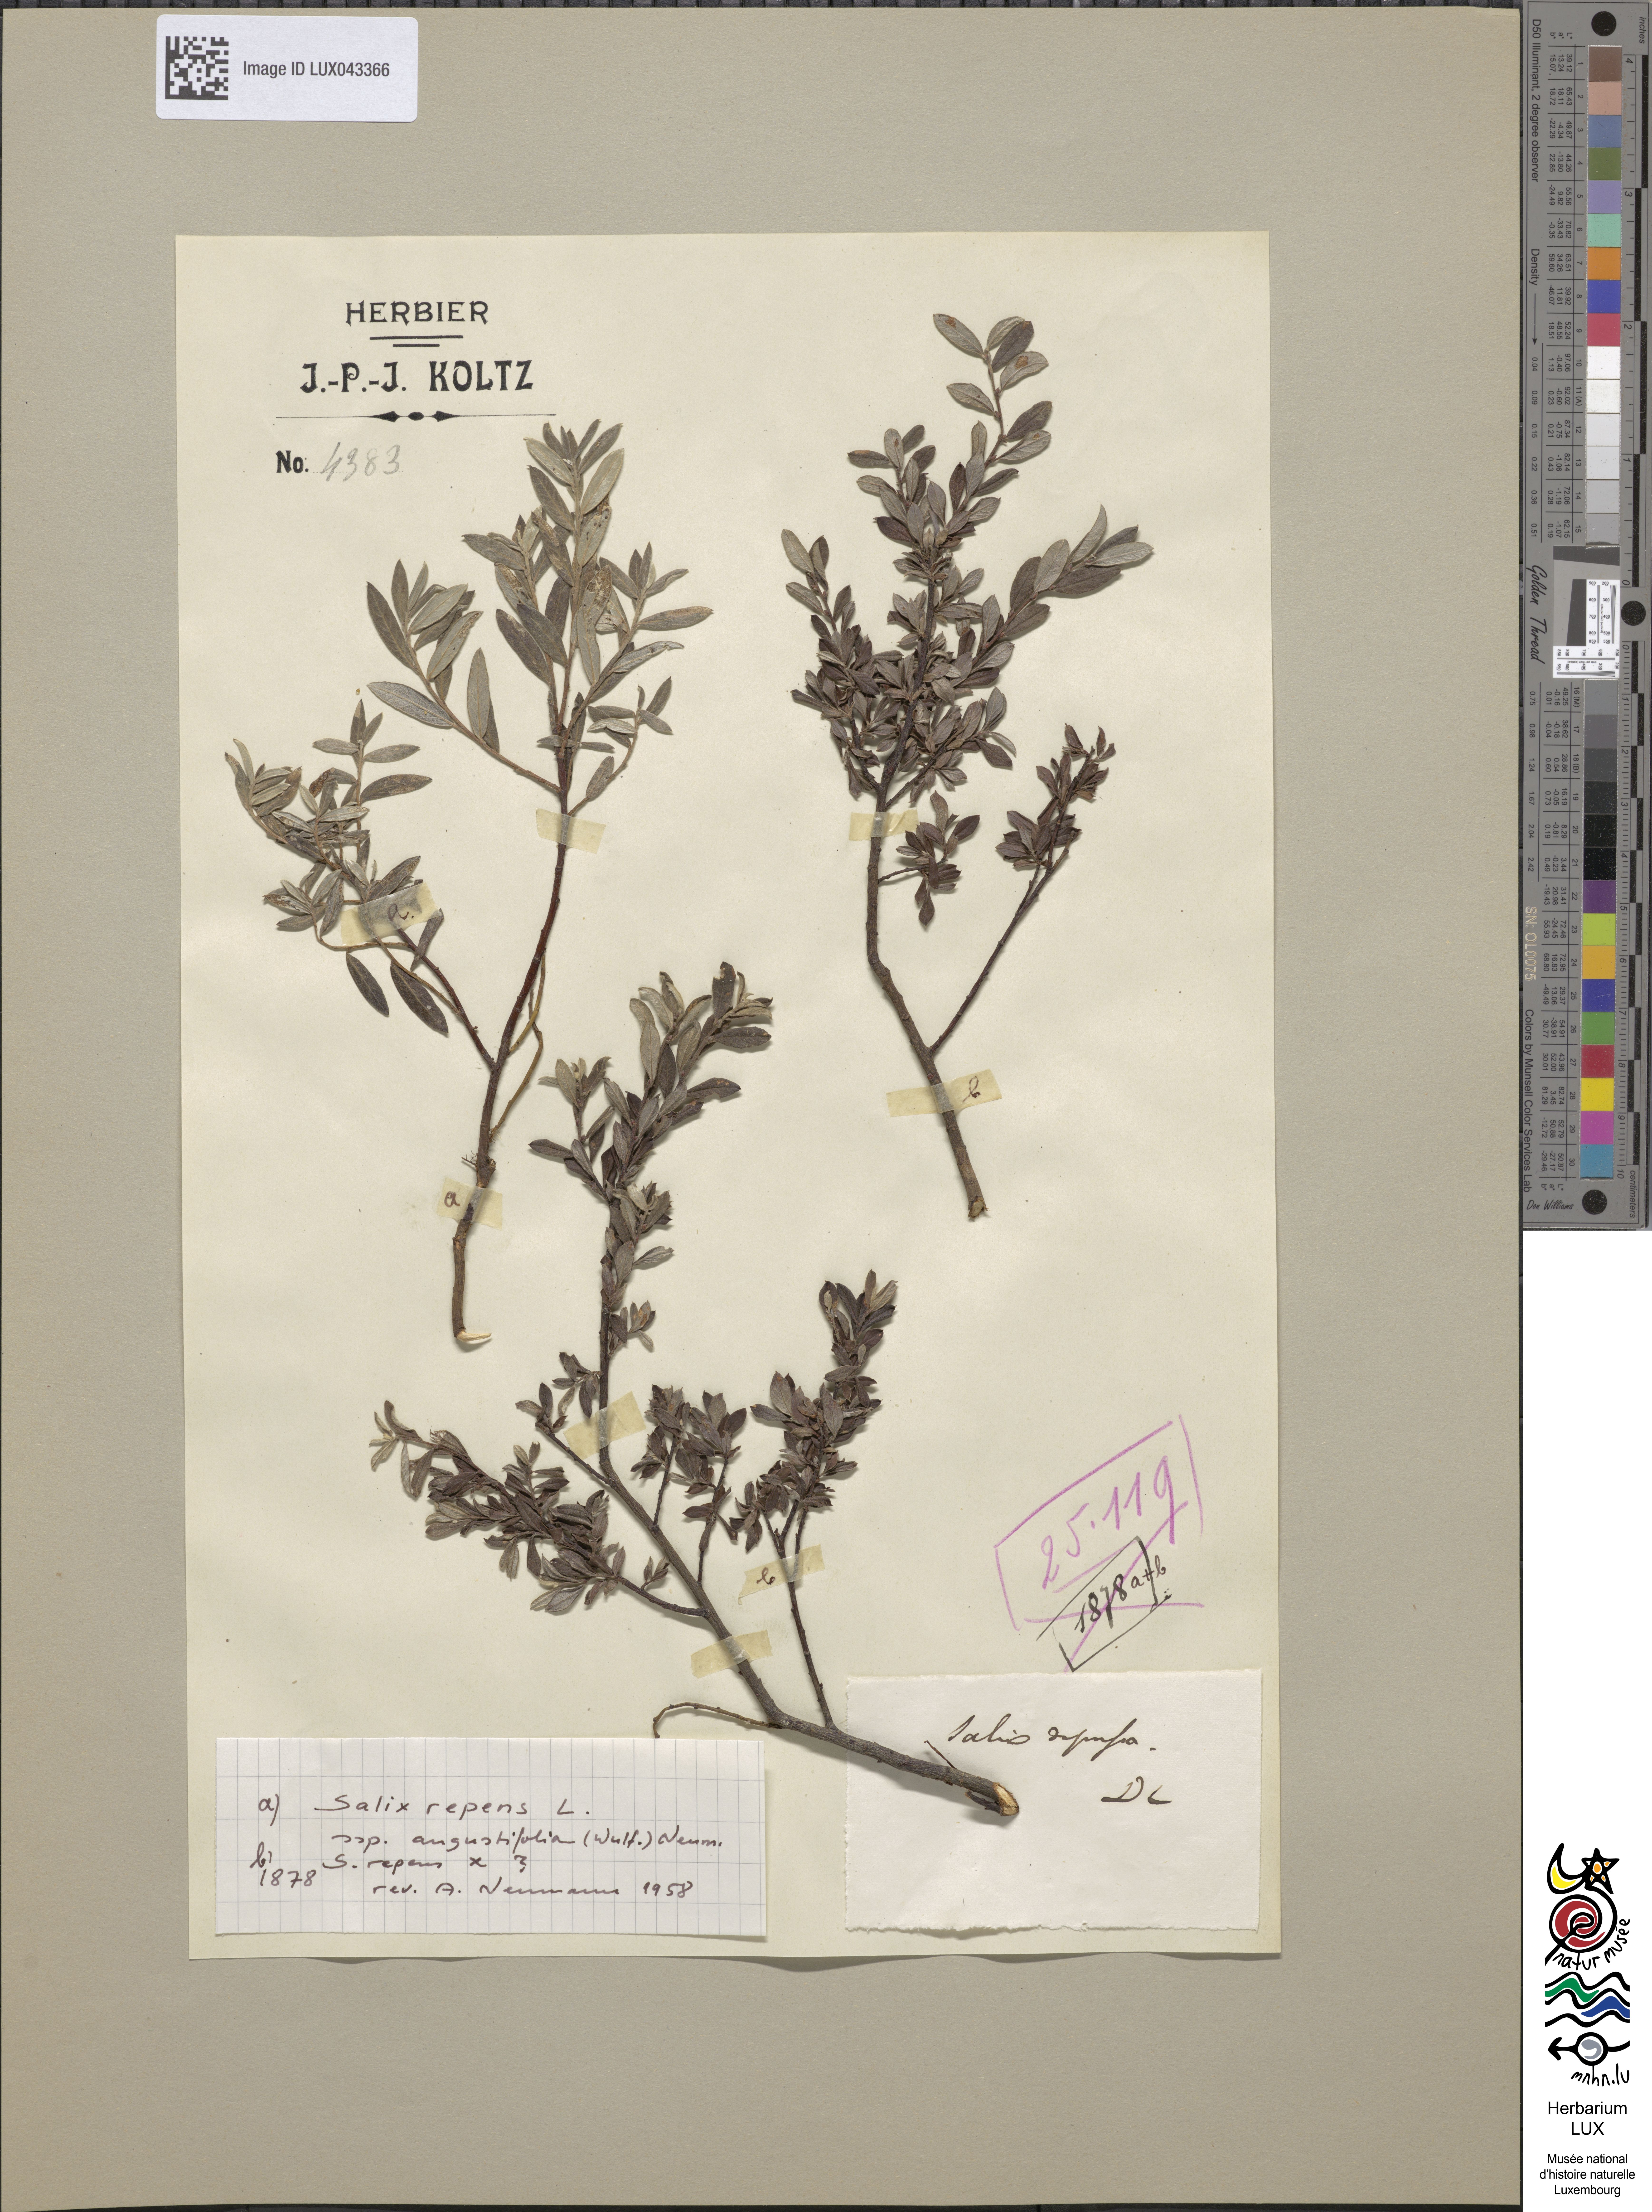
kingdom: Plantae
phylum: Tracheophyta
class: Magnoliopsida
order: Malpighiales
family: Salicaceae
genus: Salix
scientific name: Salix rosmarinifolia
